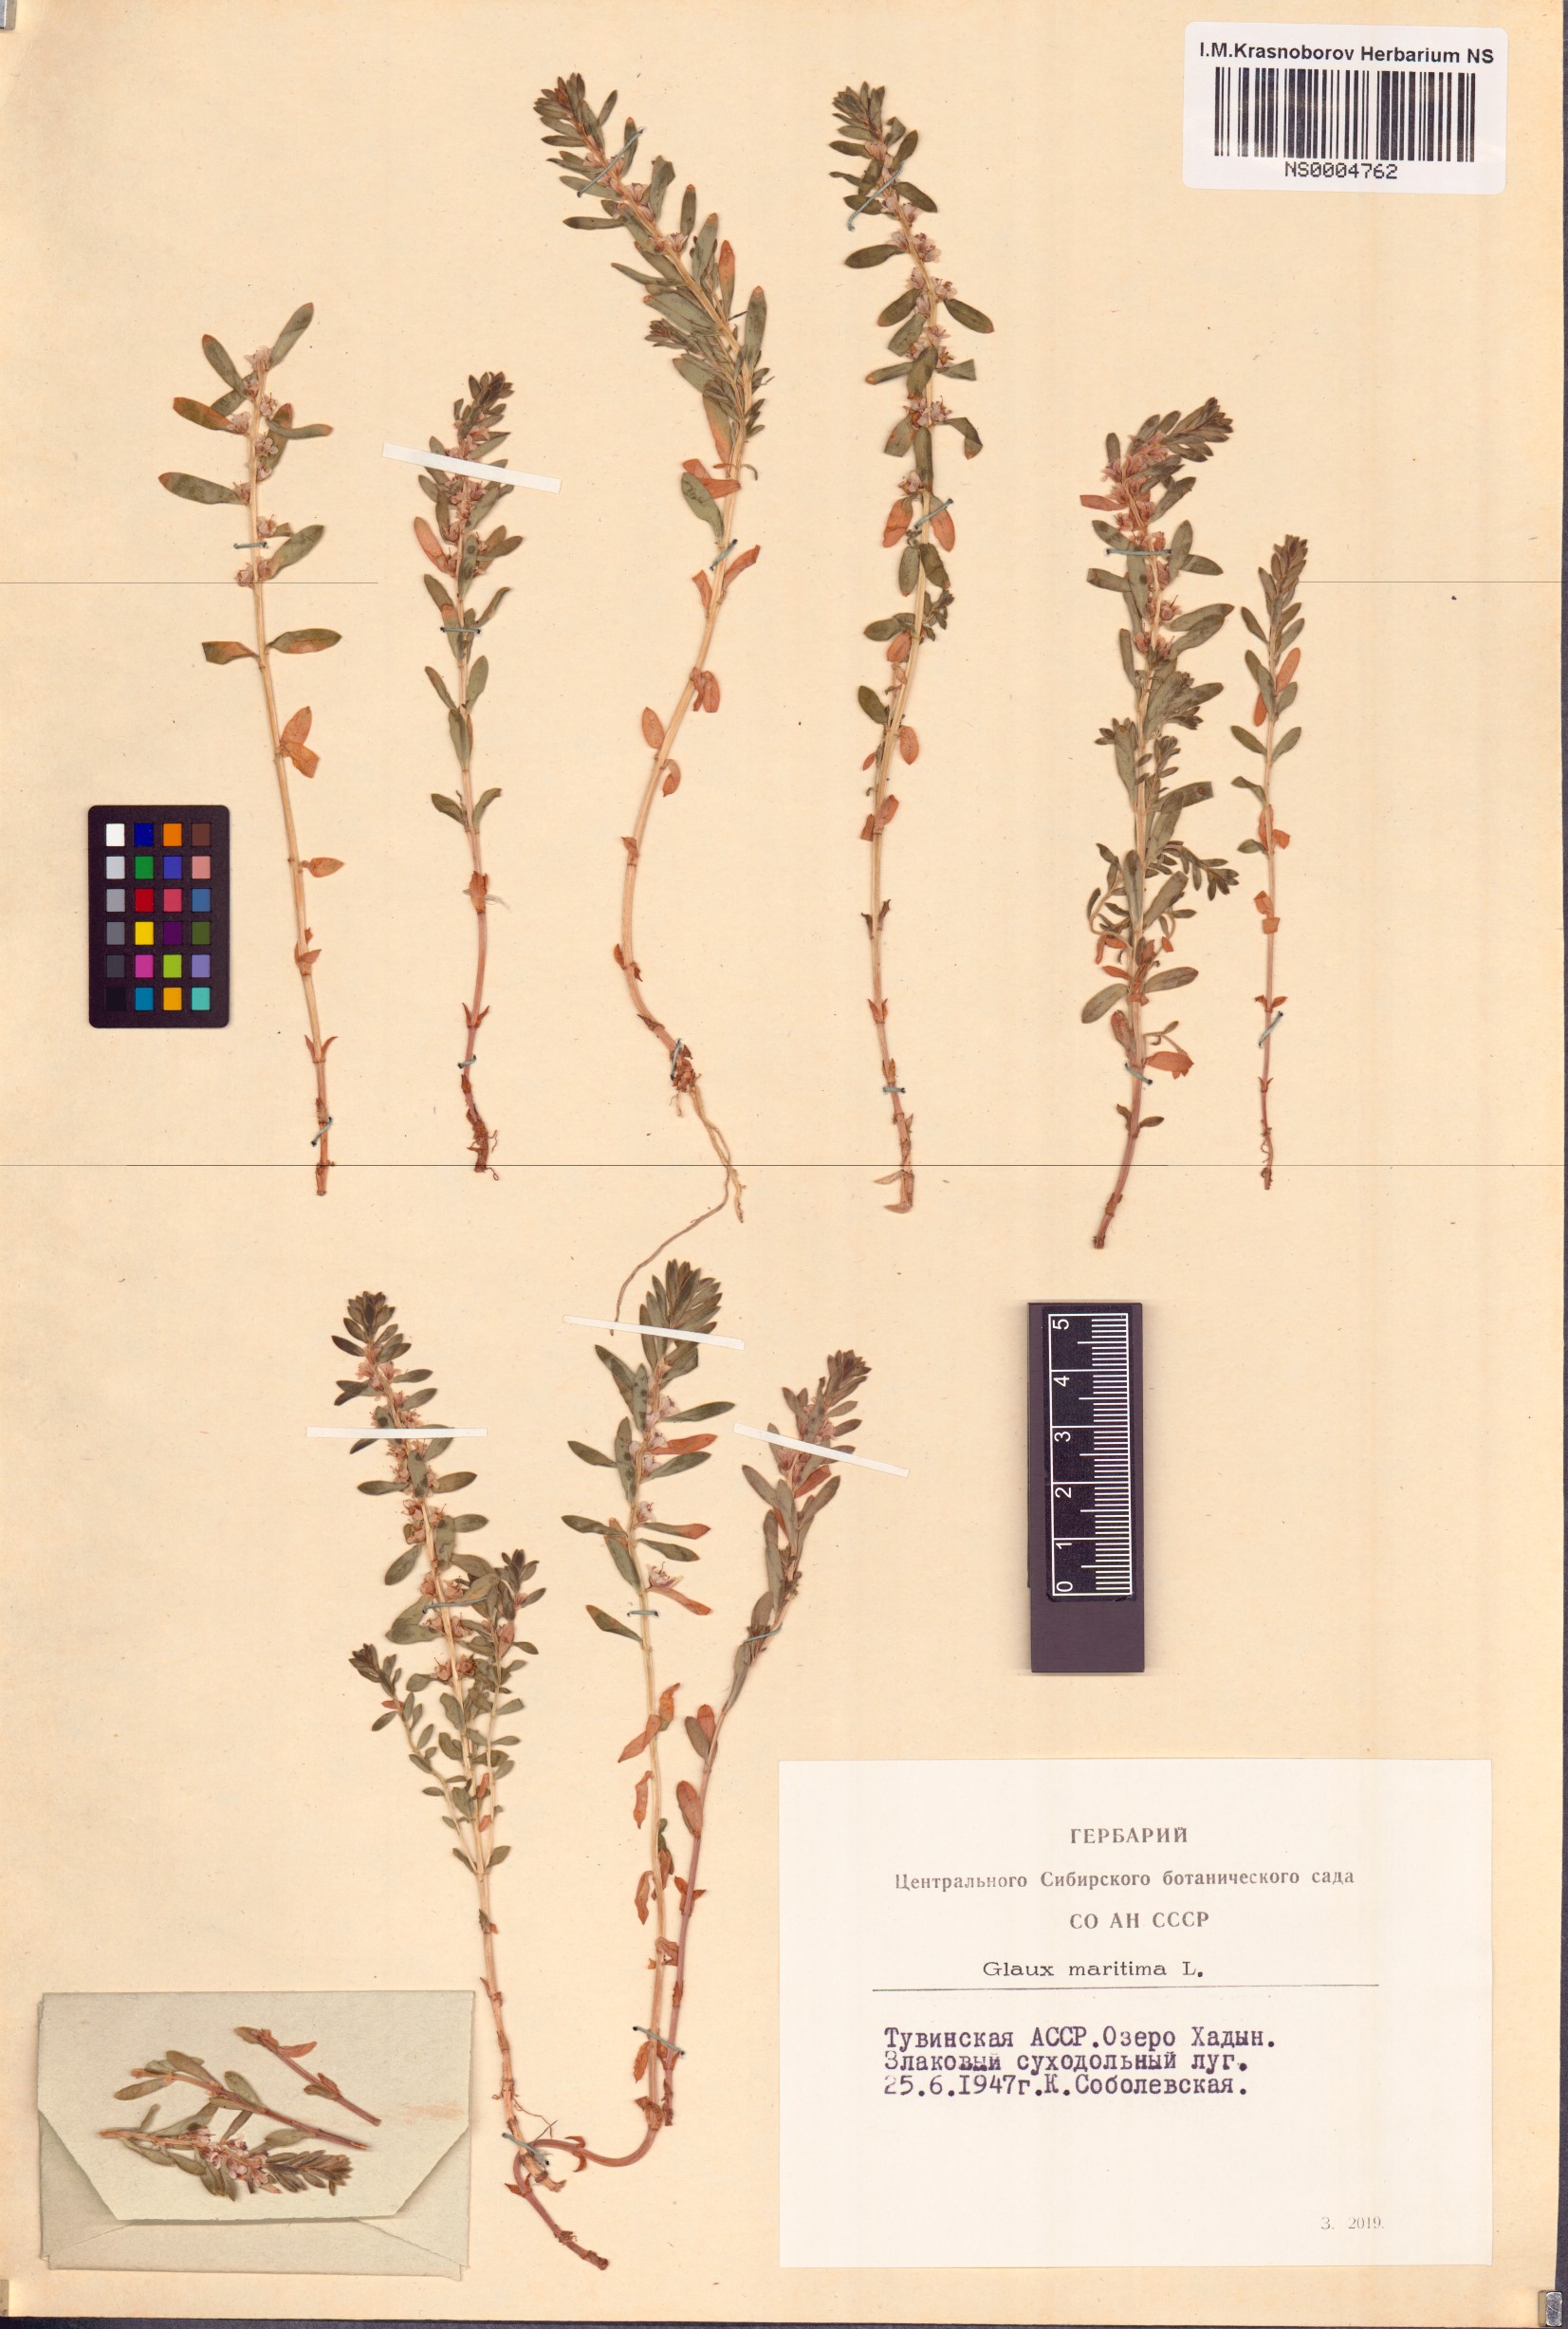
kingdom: Plantae
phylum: Tracheophyta
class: Magnoliopsida
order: Ericales
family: Primulaceae
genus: Lysimachia
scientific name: Lysimachia maritima
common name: Sea milkwort
